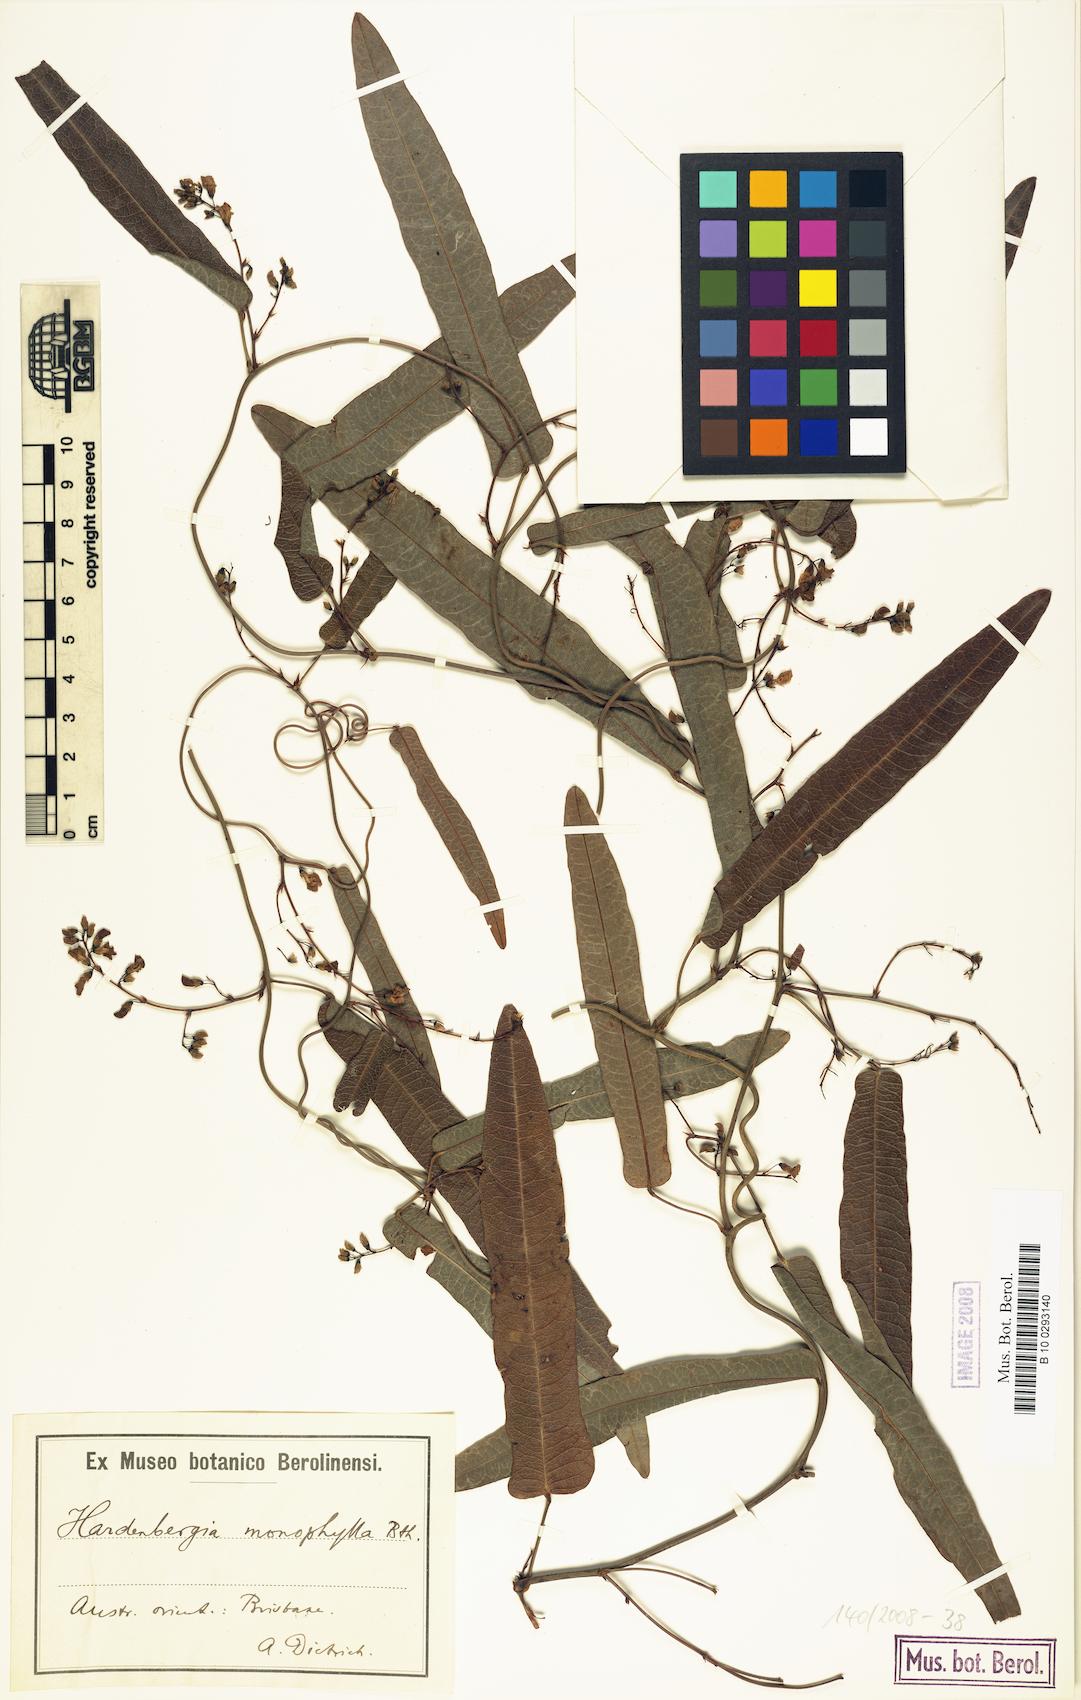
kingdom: Plantae
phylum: Tracheophyta
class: Magnoliopsida
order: Fabales
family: Fabaceae
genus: Hardenbergia
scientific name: Hardenbergia violacea
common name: Coral-pea
